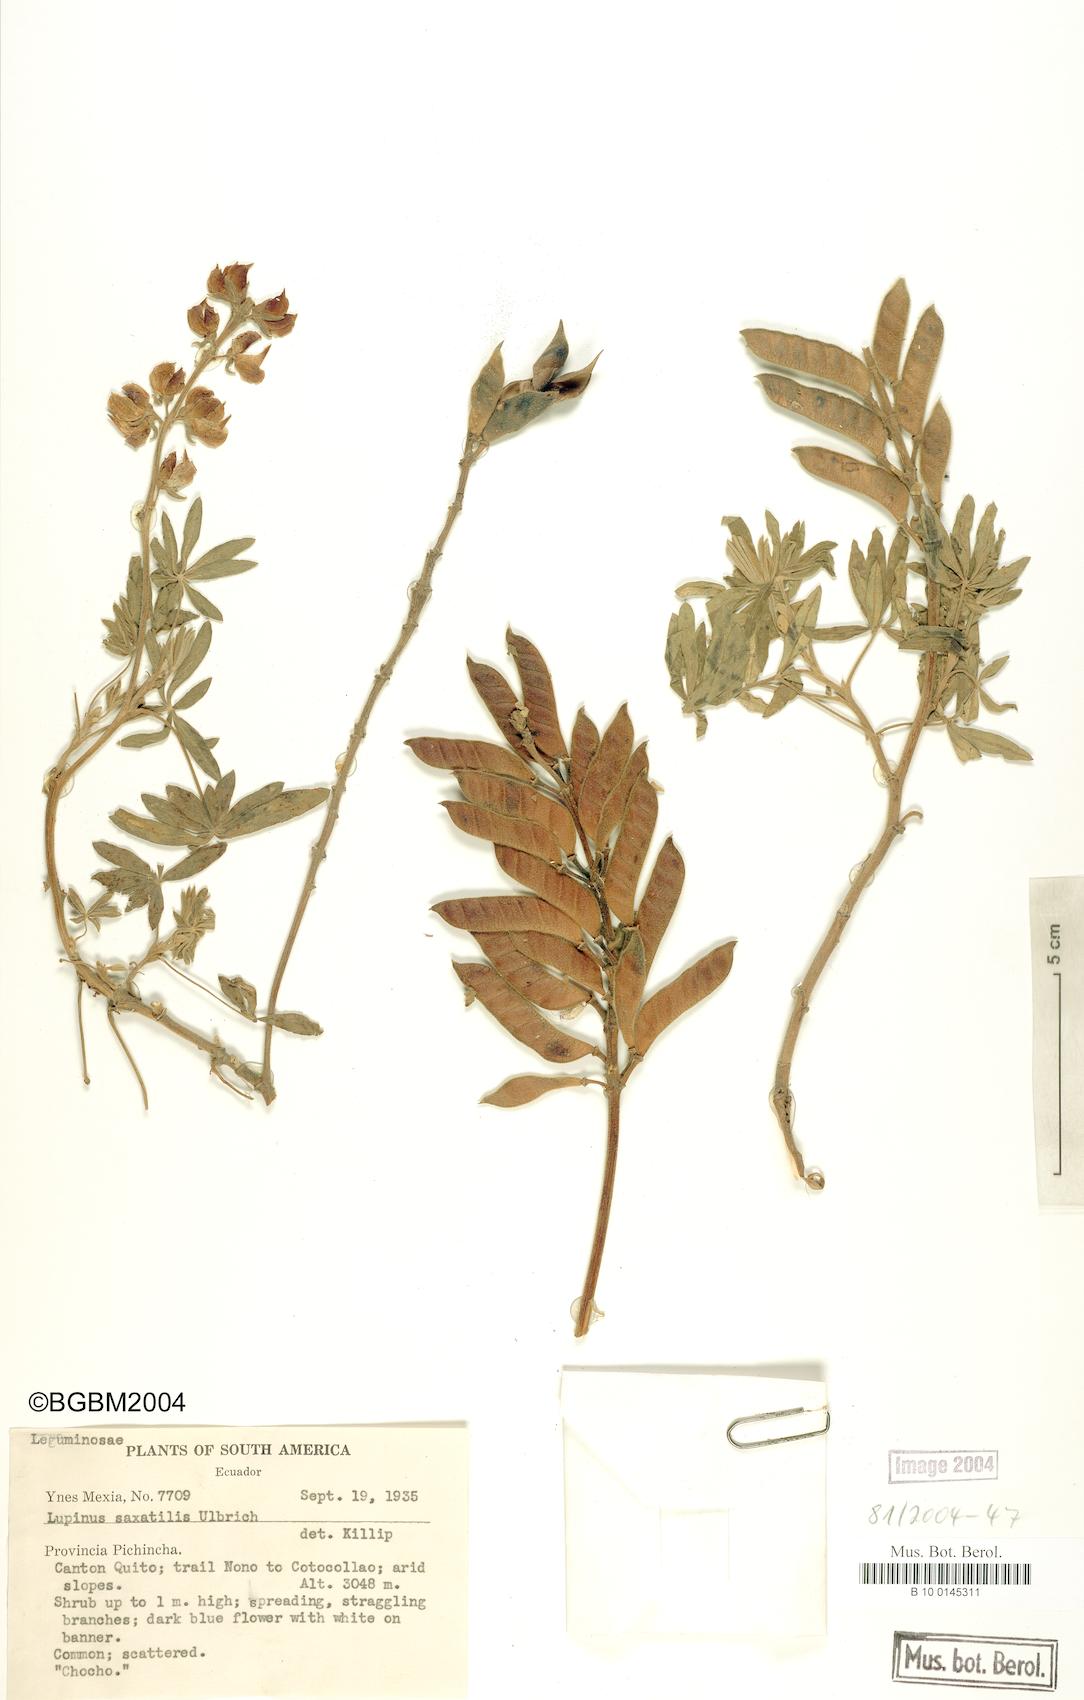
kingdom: Plantae
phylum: Tracheophyta
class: Magnoliopsida
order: Fabales
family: Fabaceae
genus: Lupinus
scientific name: Lupinus saxatilis
